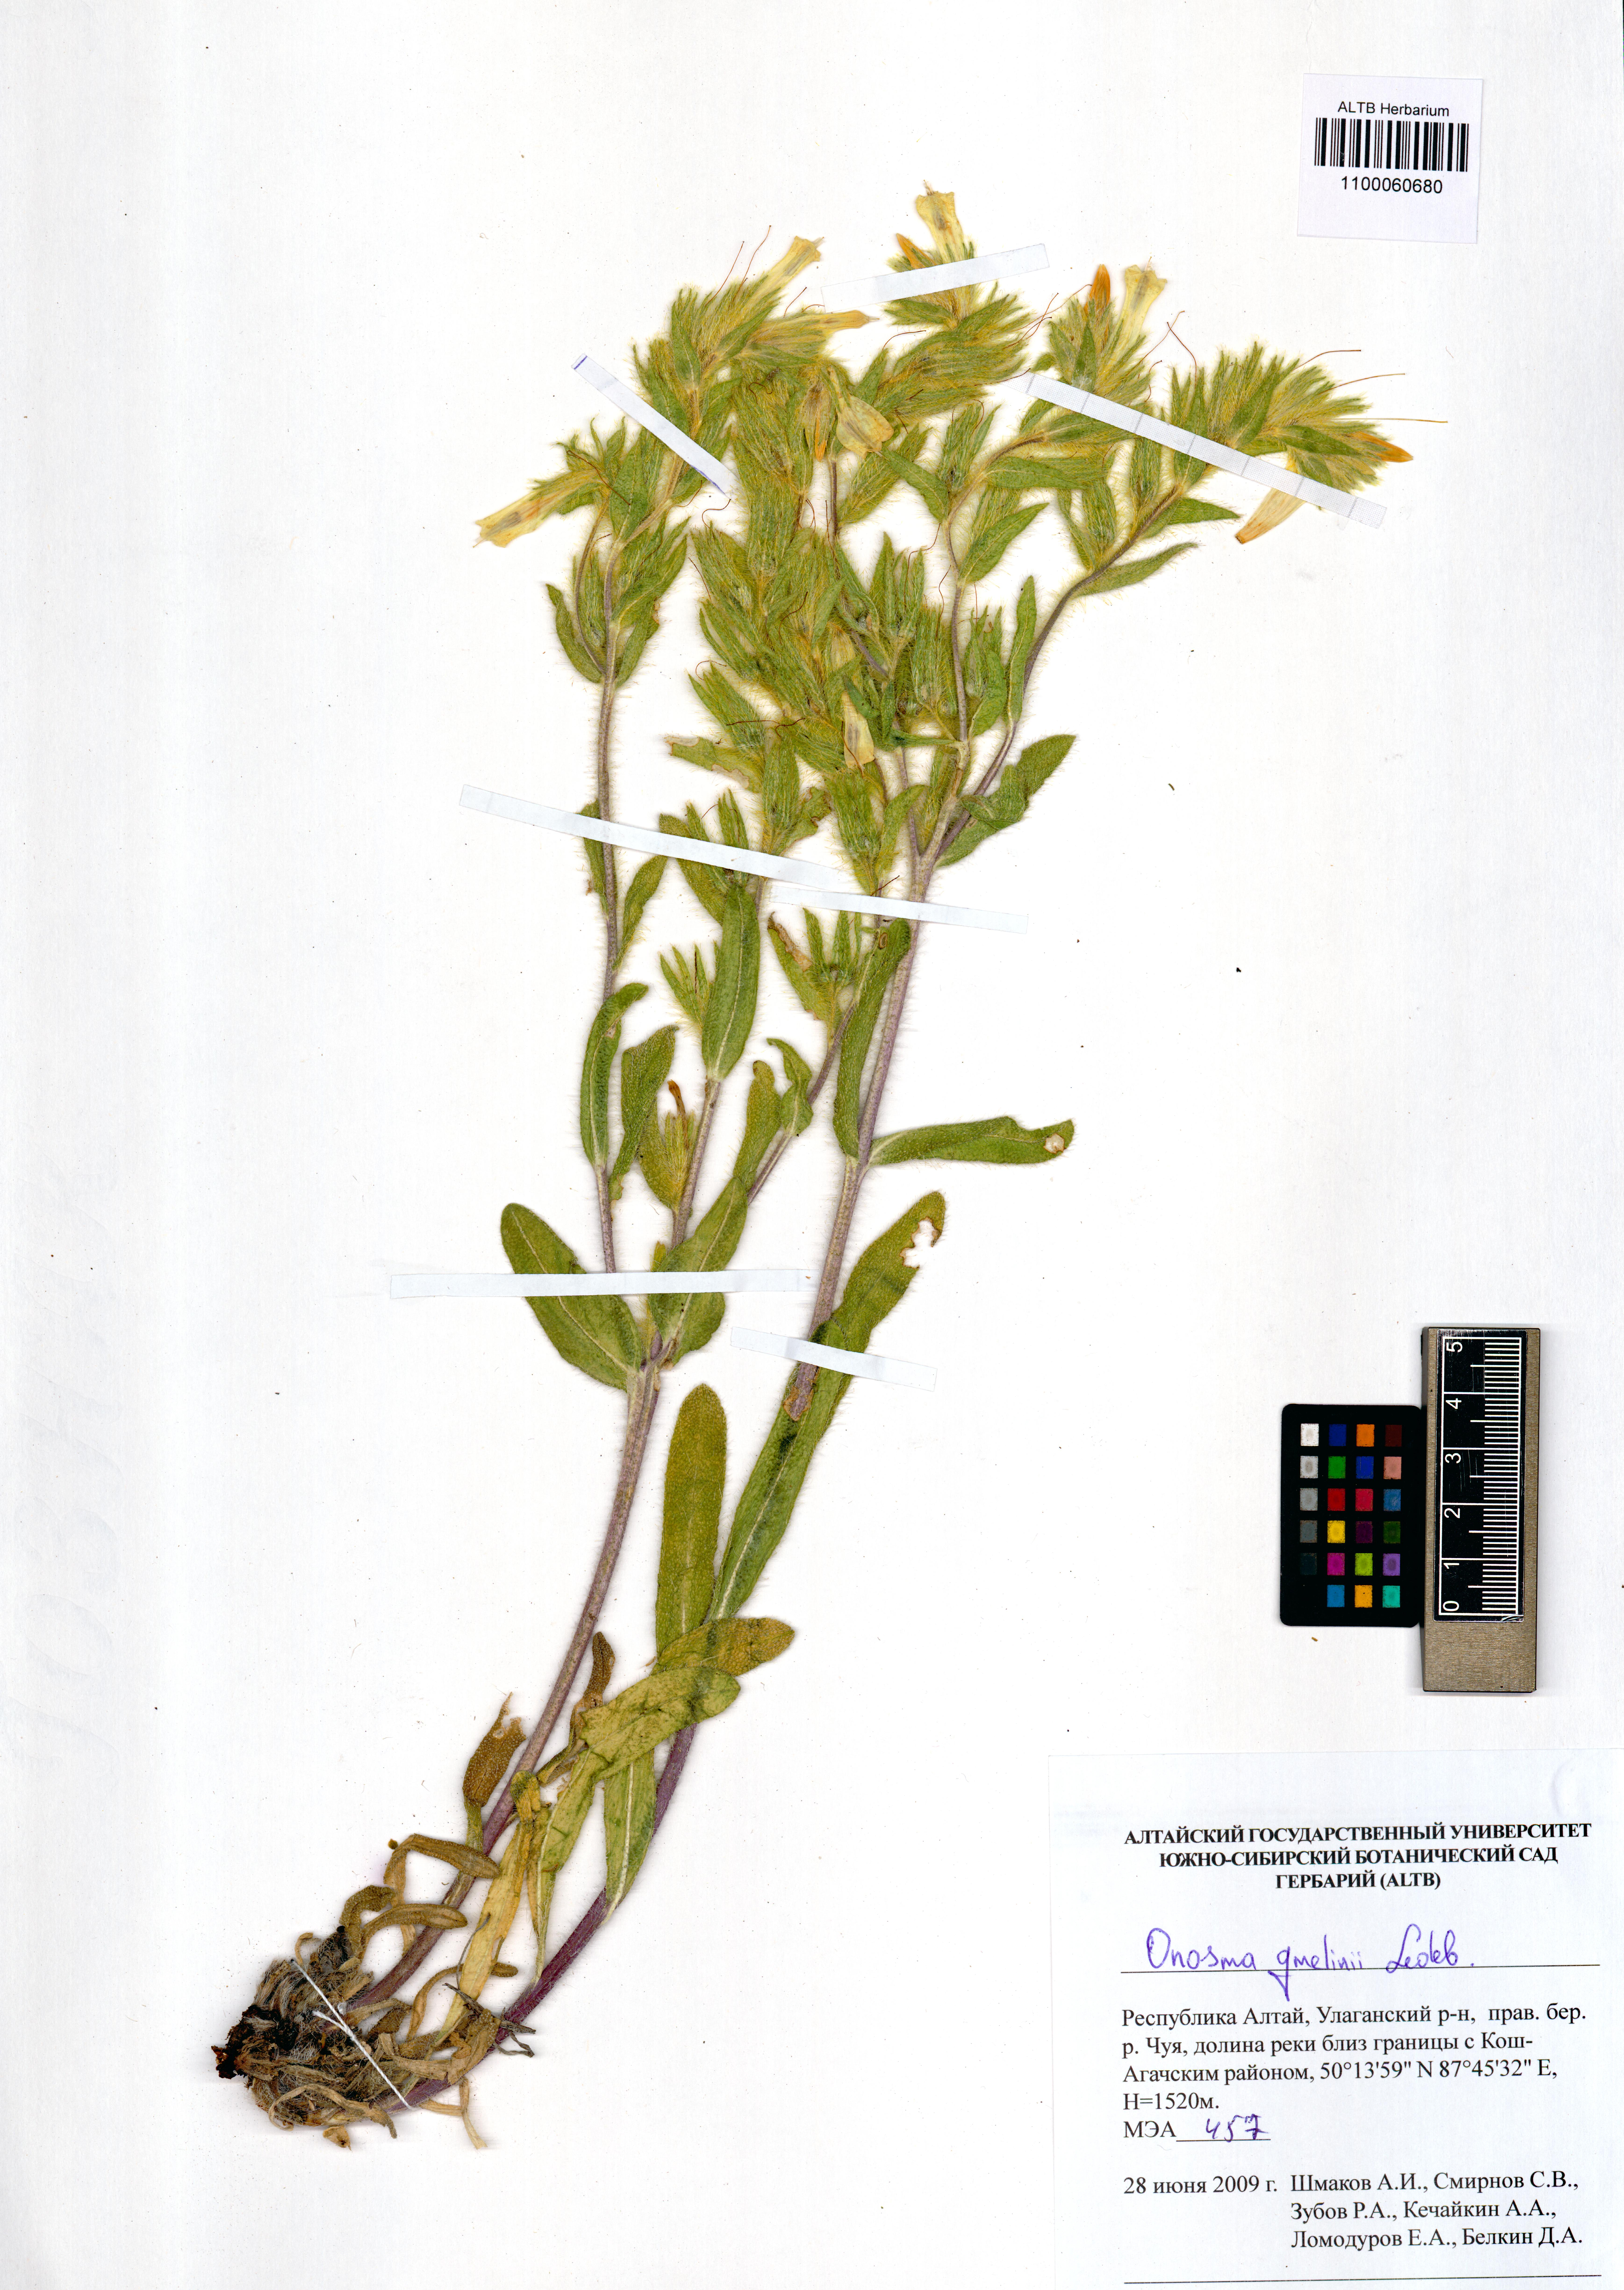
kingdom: Plantae
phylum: Tracheophyta
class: Magnoliopsida
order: Boraginales
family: Boraginaceae
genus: Onosma
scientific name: Onosma gmelinii
